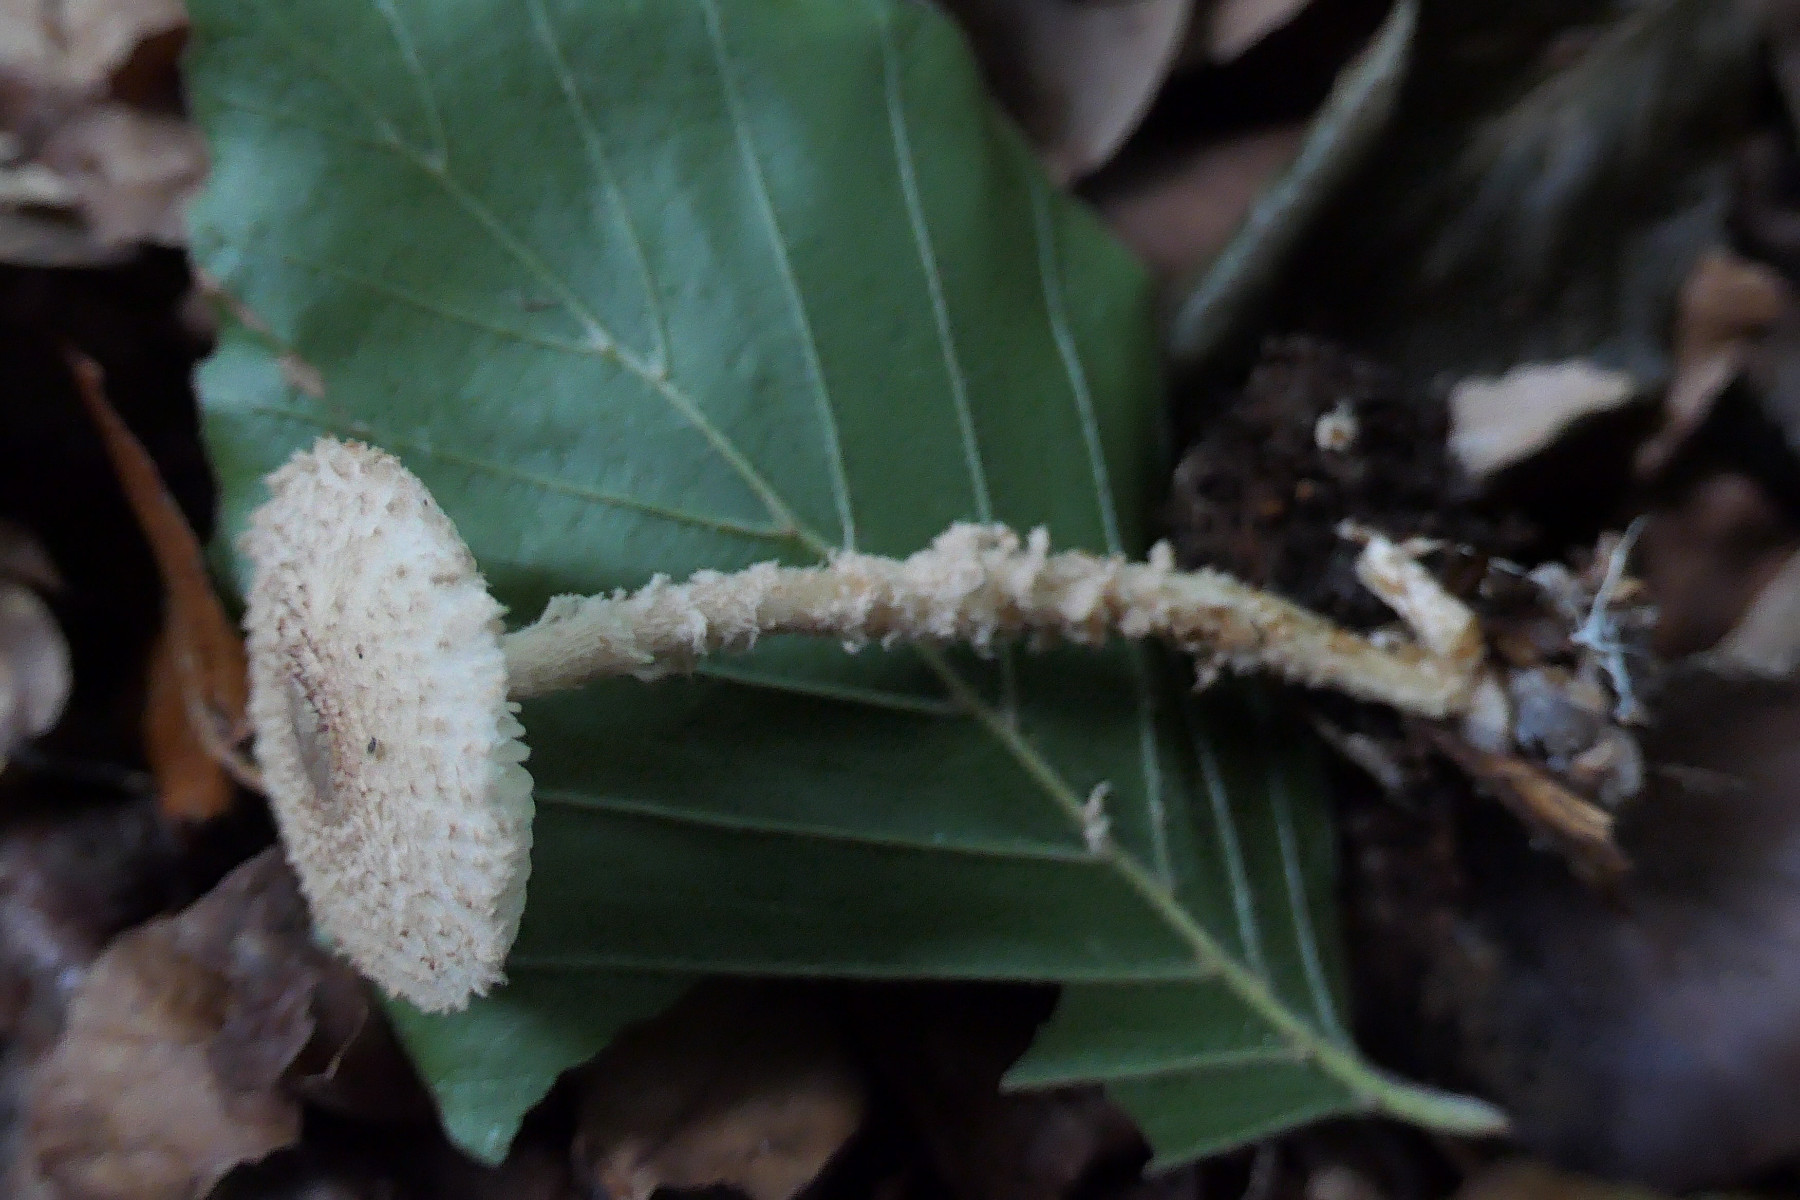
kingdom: Fungi
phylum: Basidiomycota
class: Agaricomycetes
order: Agaricales
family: Agaricaceae
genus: Lepiota
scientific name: Lepiota magnispora
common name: gulfnugget parasolhat
